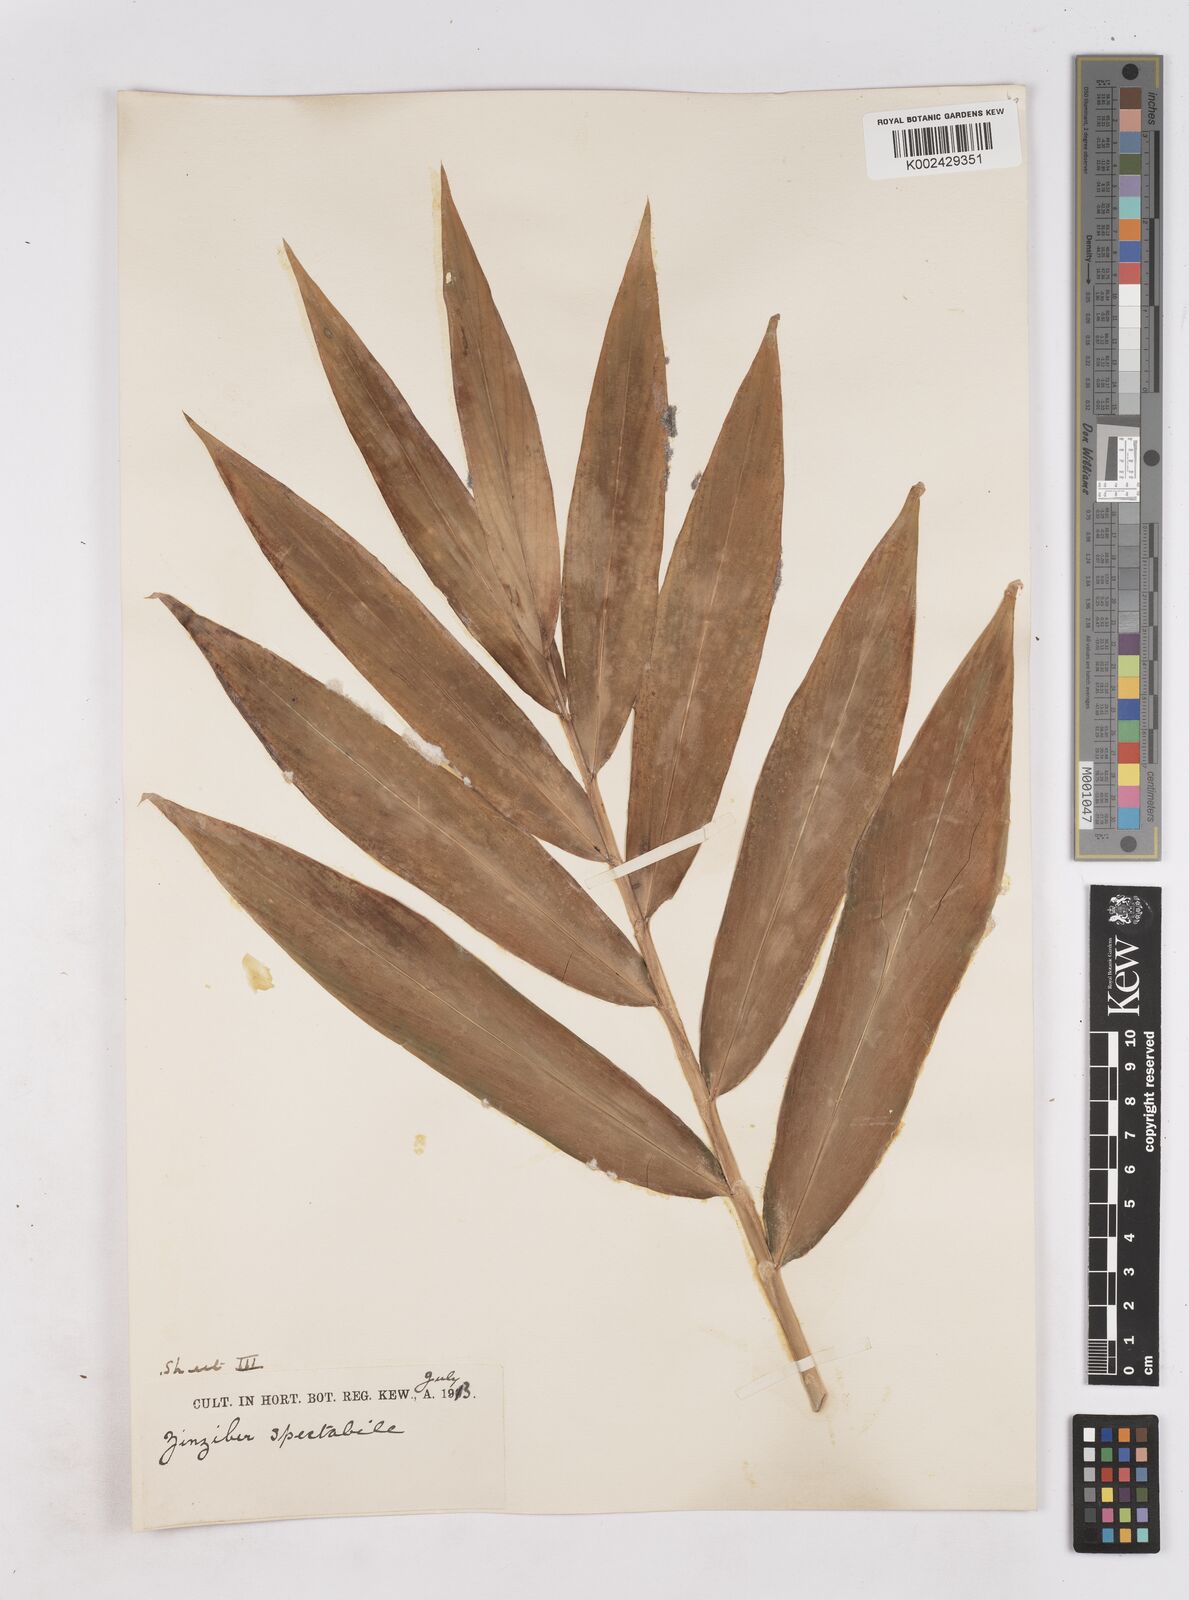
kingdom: Plantae
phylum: Tracheophyta
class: Liliopsida
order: Zingiberales
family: Zingiberaceae
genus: Zingiber
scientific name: Zingiber spectabile
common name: Beehive ginger
